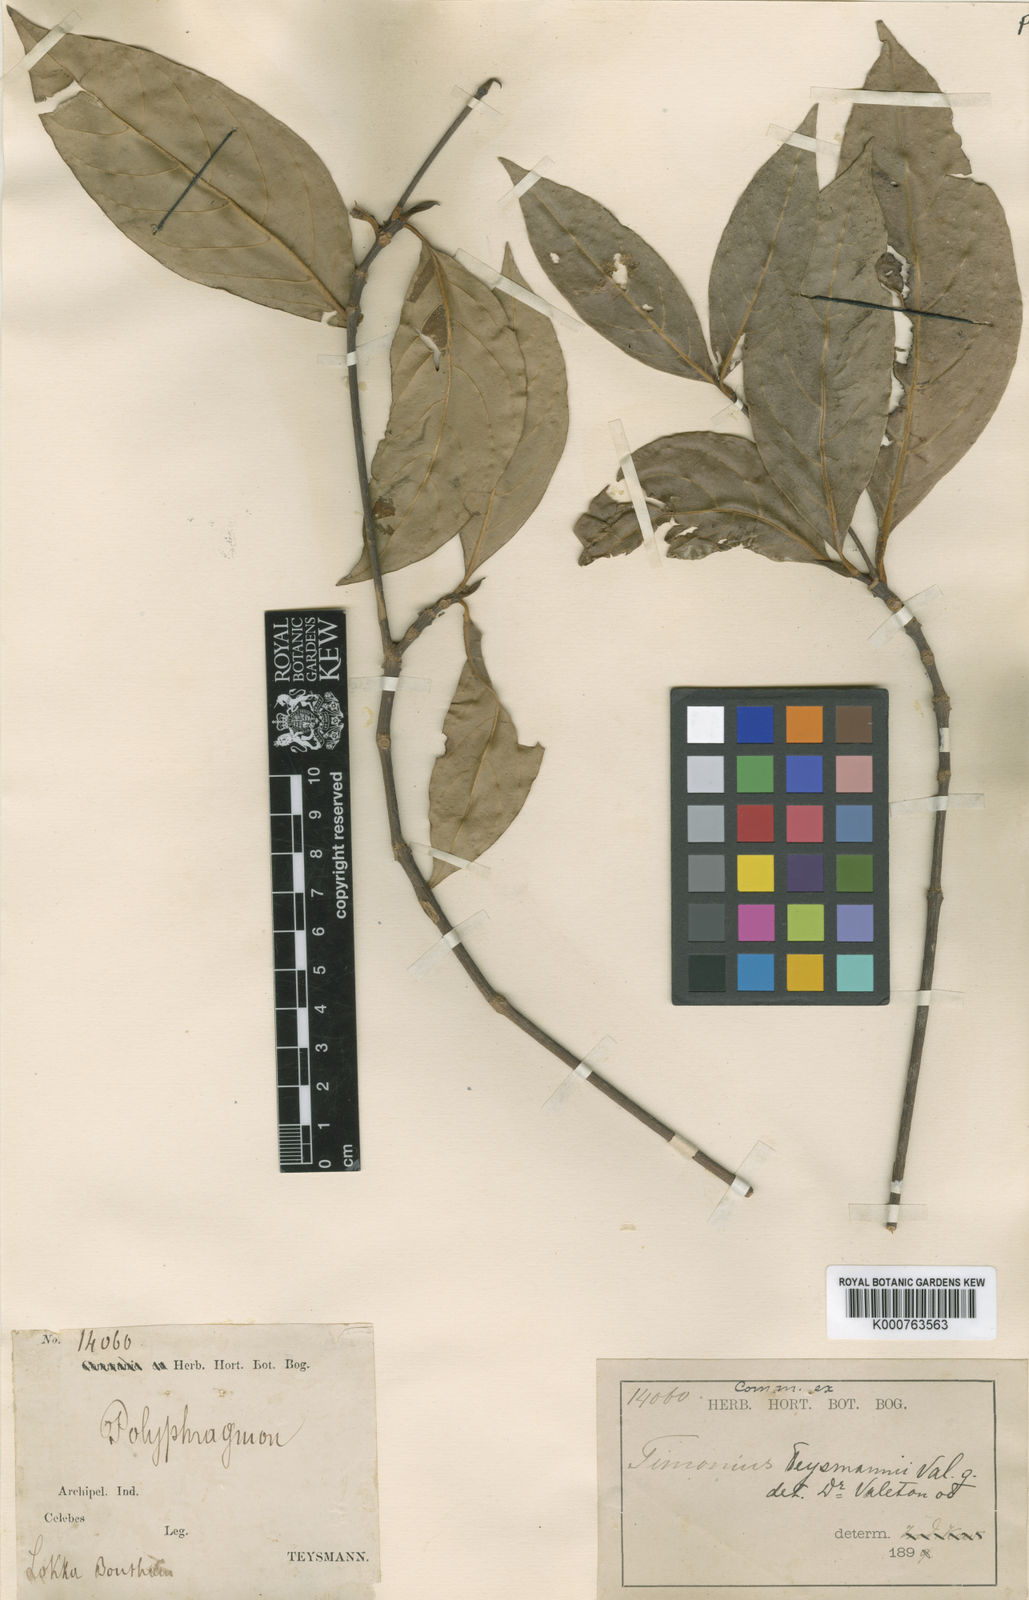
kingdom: Plantae
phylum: Tracheophyta
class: Magnoliopsida
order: Gentianales
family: Rubiaceae
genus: Timonius
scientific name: Timonius teysmannii
